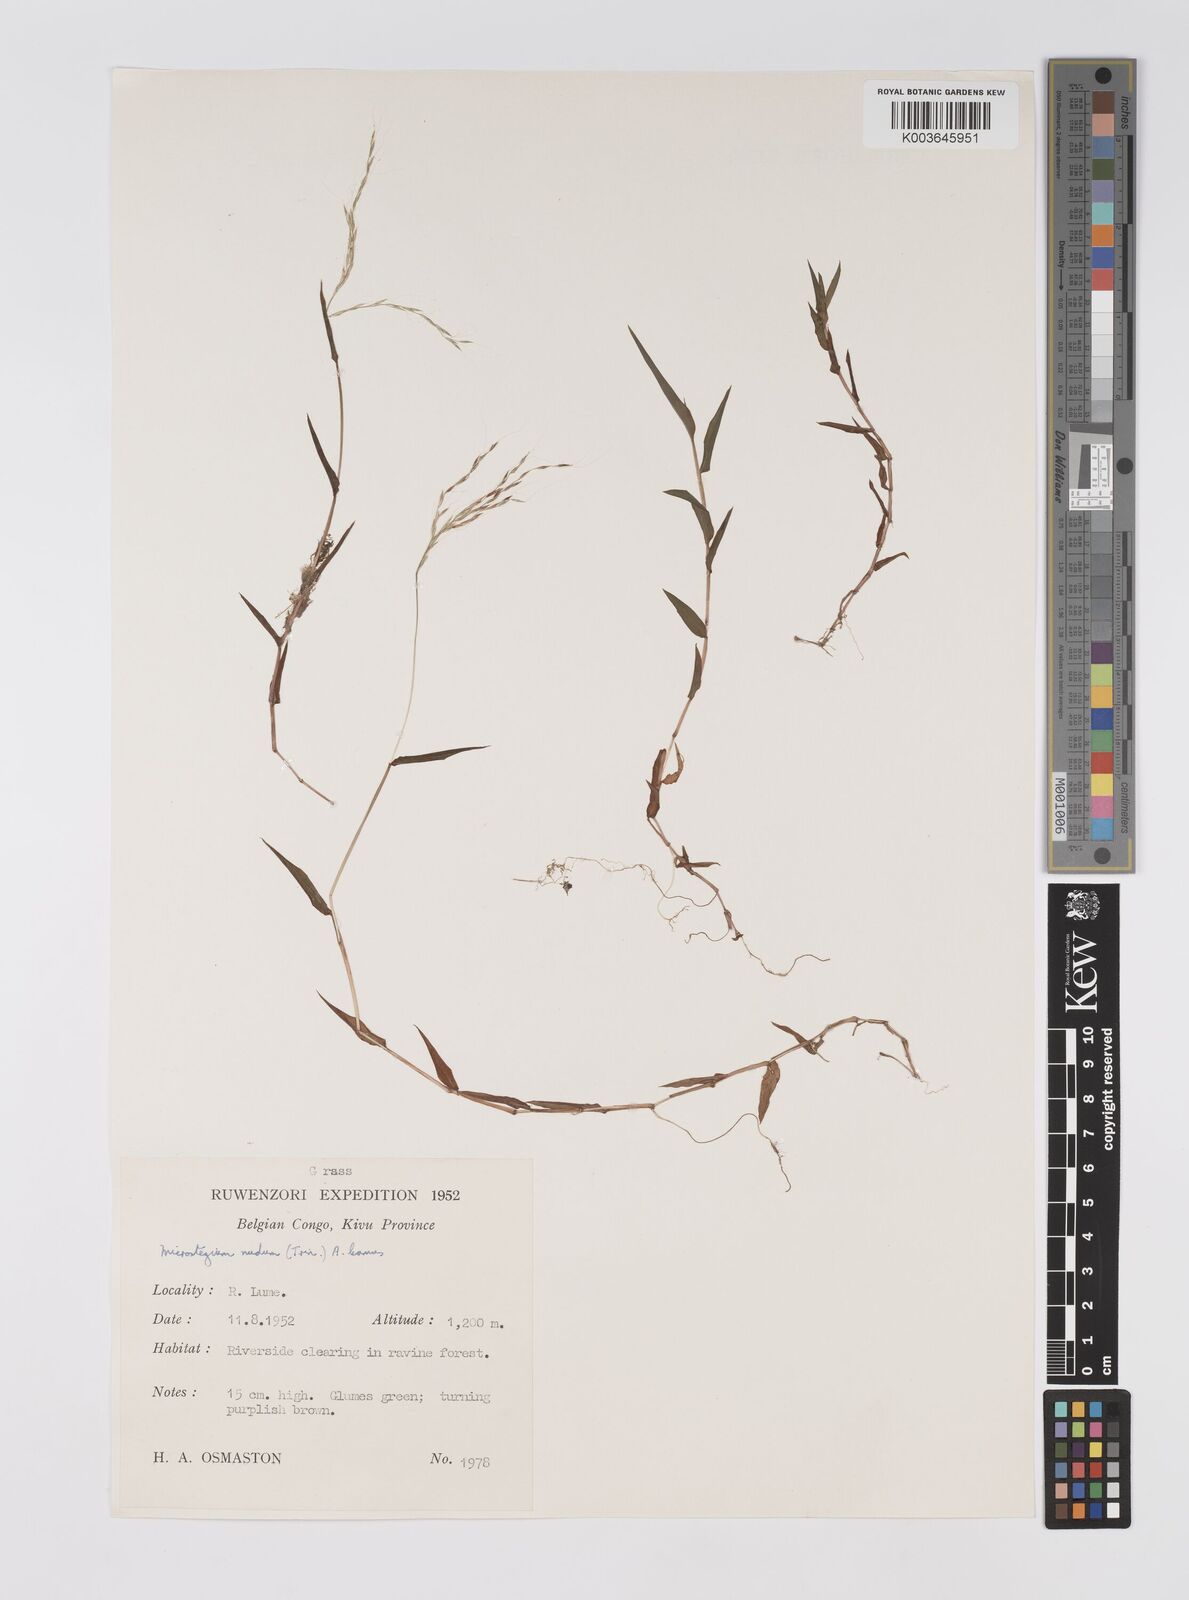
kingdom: Plantae
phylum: Tracheophyta
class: Liliopsida
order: Poales
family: Poaceae
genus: Microstegium
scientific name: Microstegium nudum
